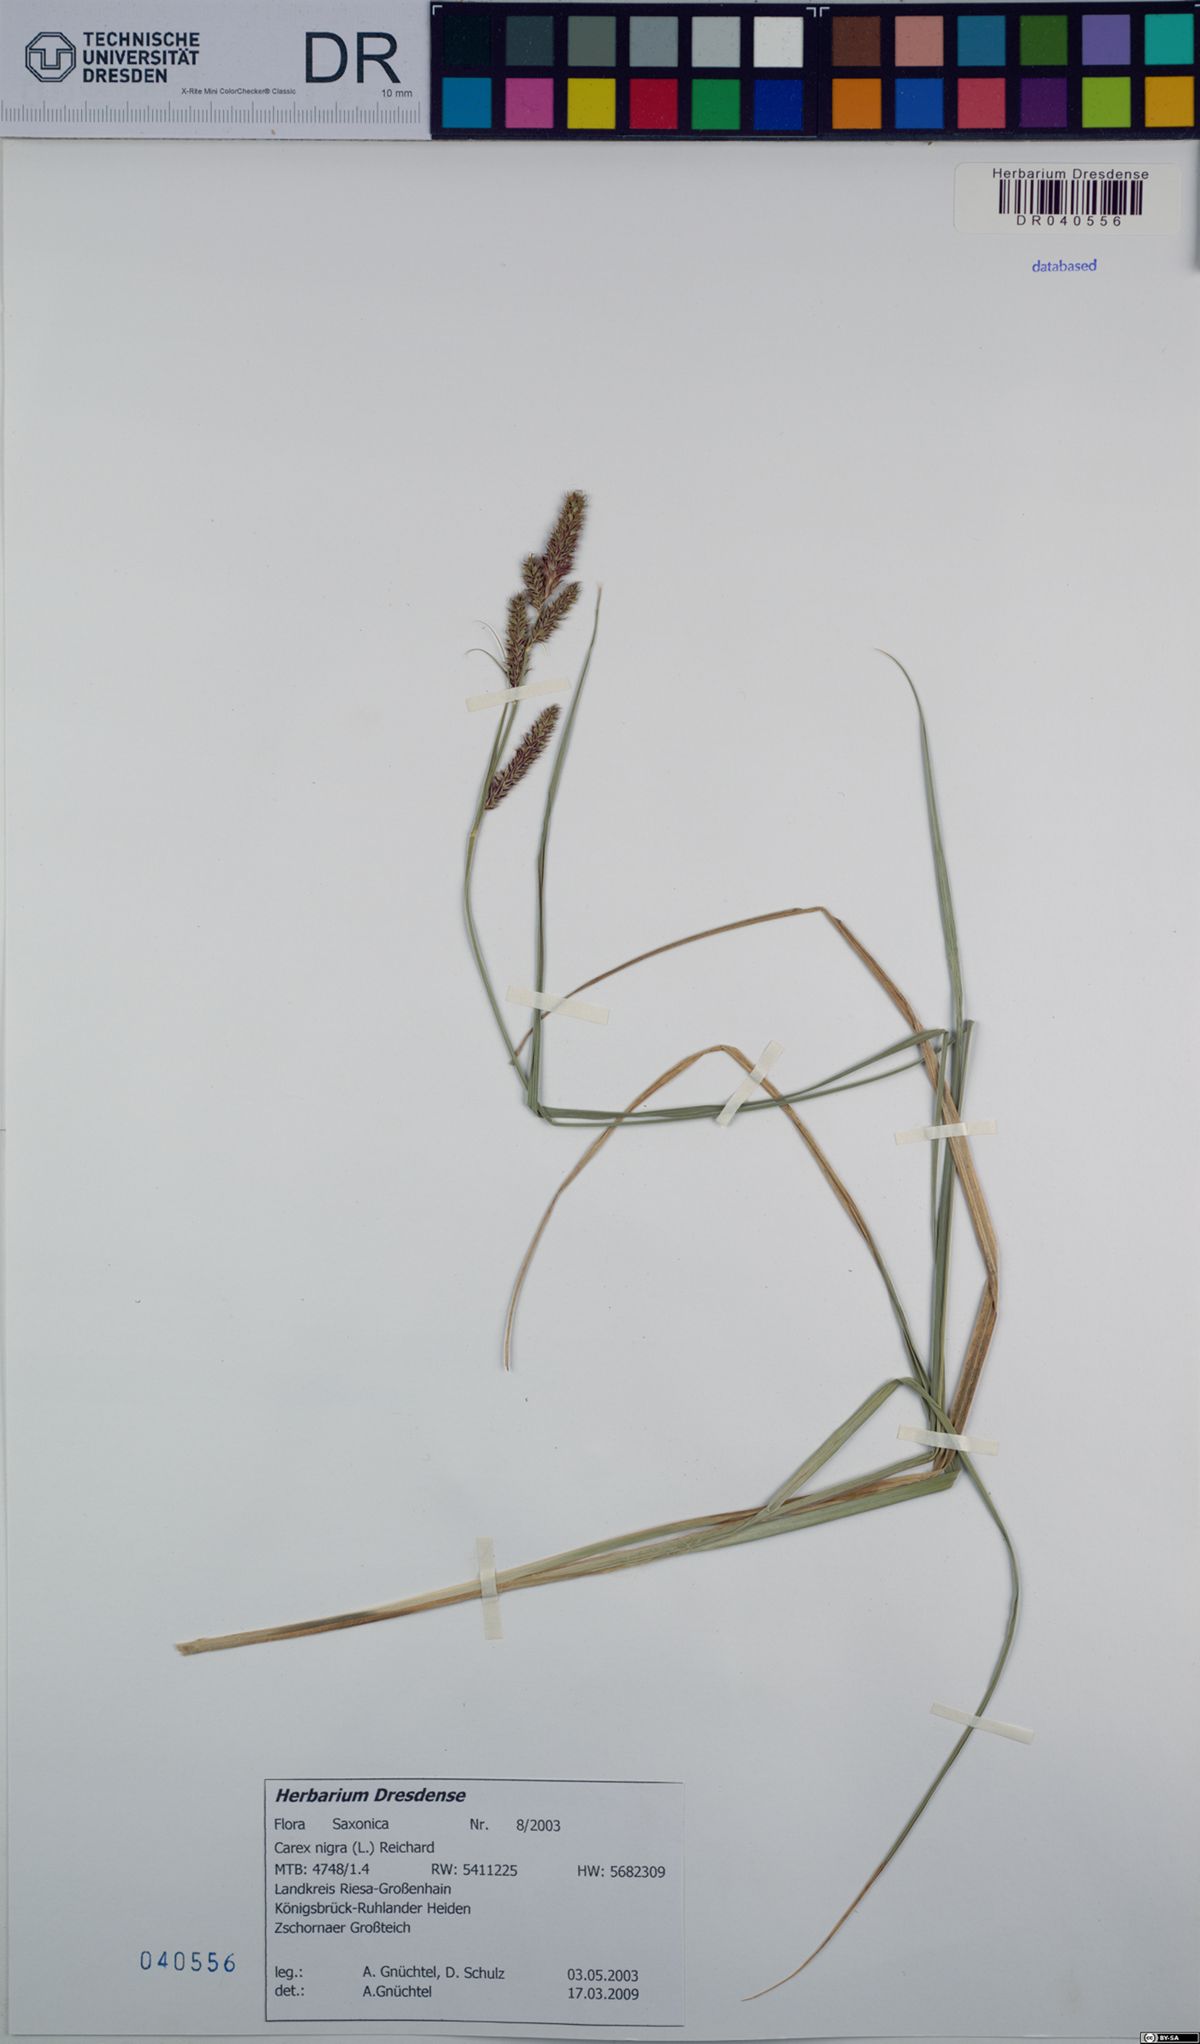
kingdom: Plantae
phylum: Tracheophyta
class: Liliopsida
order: Poales
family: Cyperaceae
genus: Carex
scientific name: Carex nigra
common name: Common sedge
